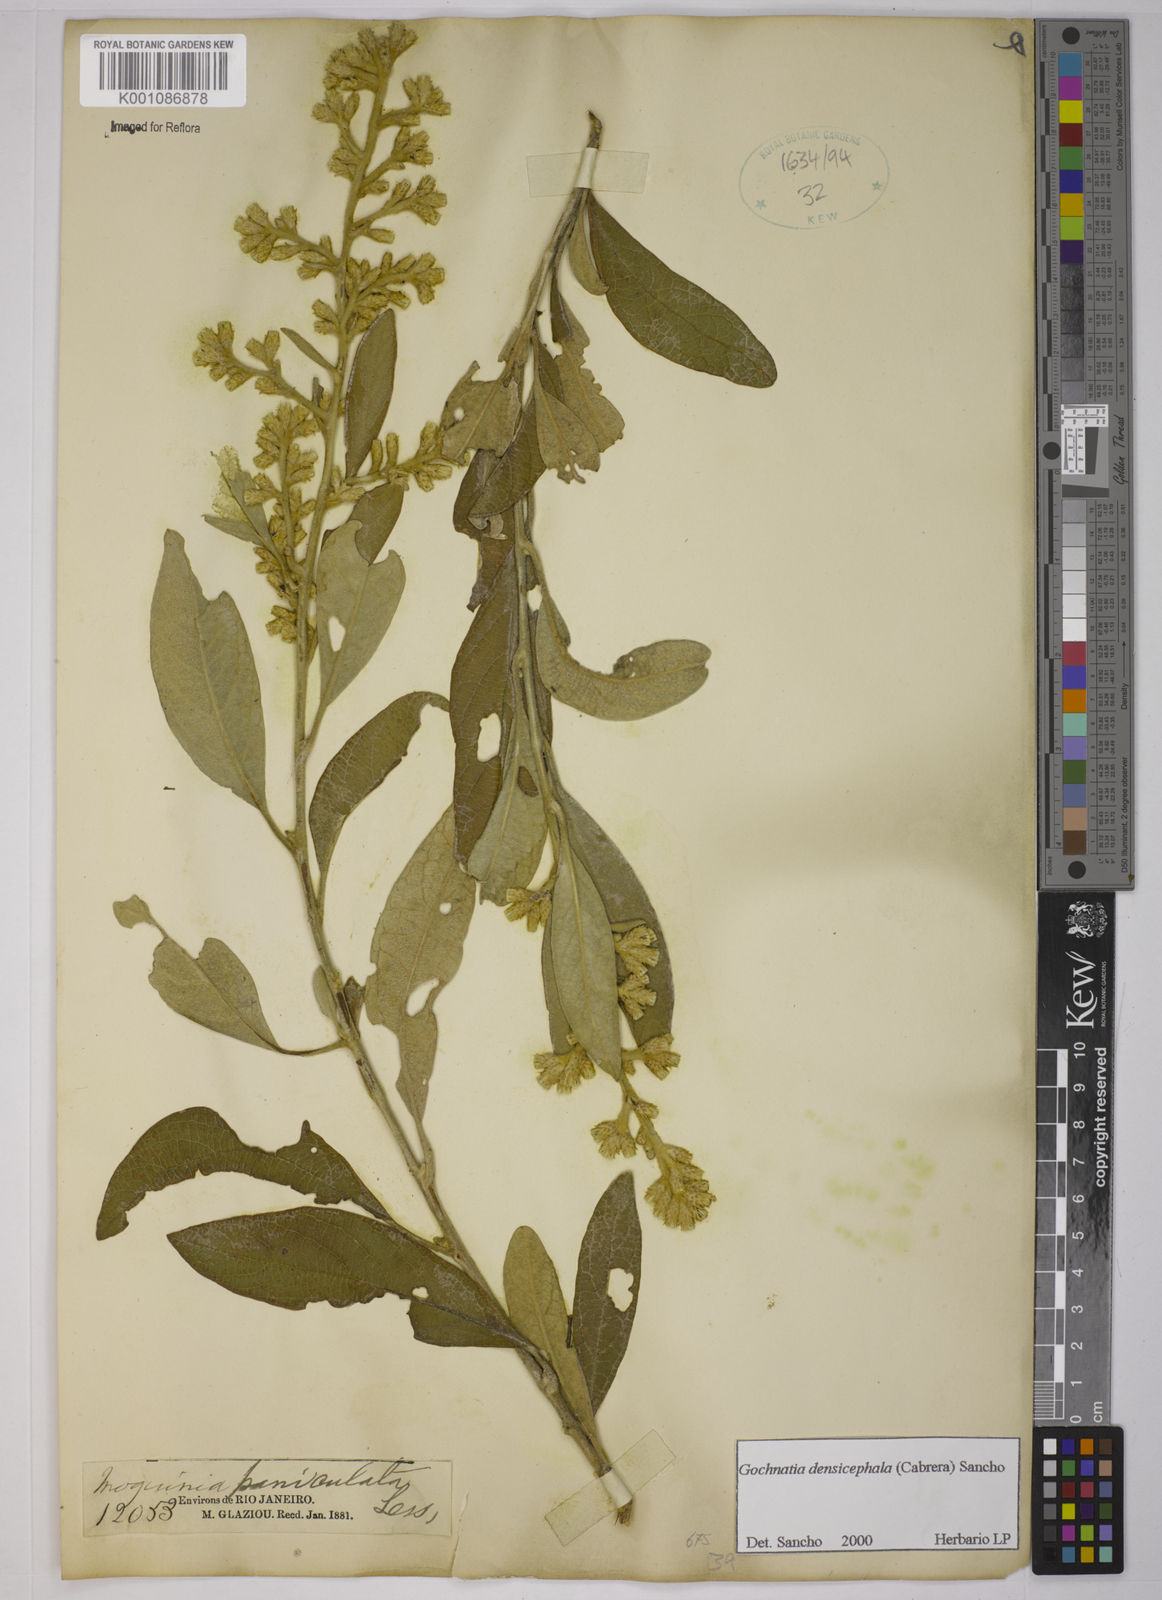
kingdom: Plantae
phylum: Tracheophyta
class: Magnoliopsida
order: Asterales
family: Asteraceae
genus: Moquiniastrum
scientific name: Moquiniastrum densicephalum
